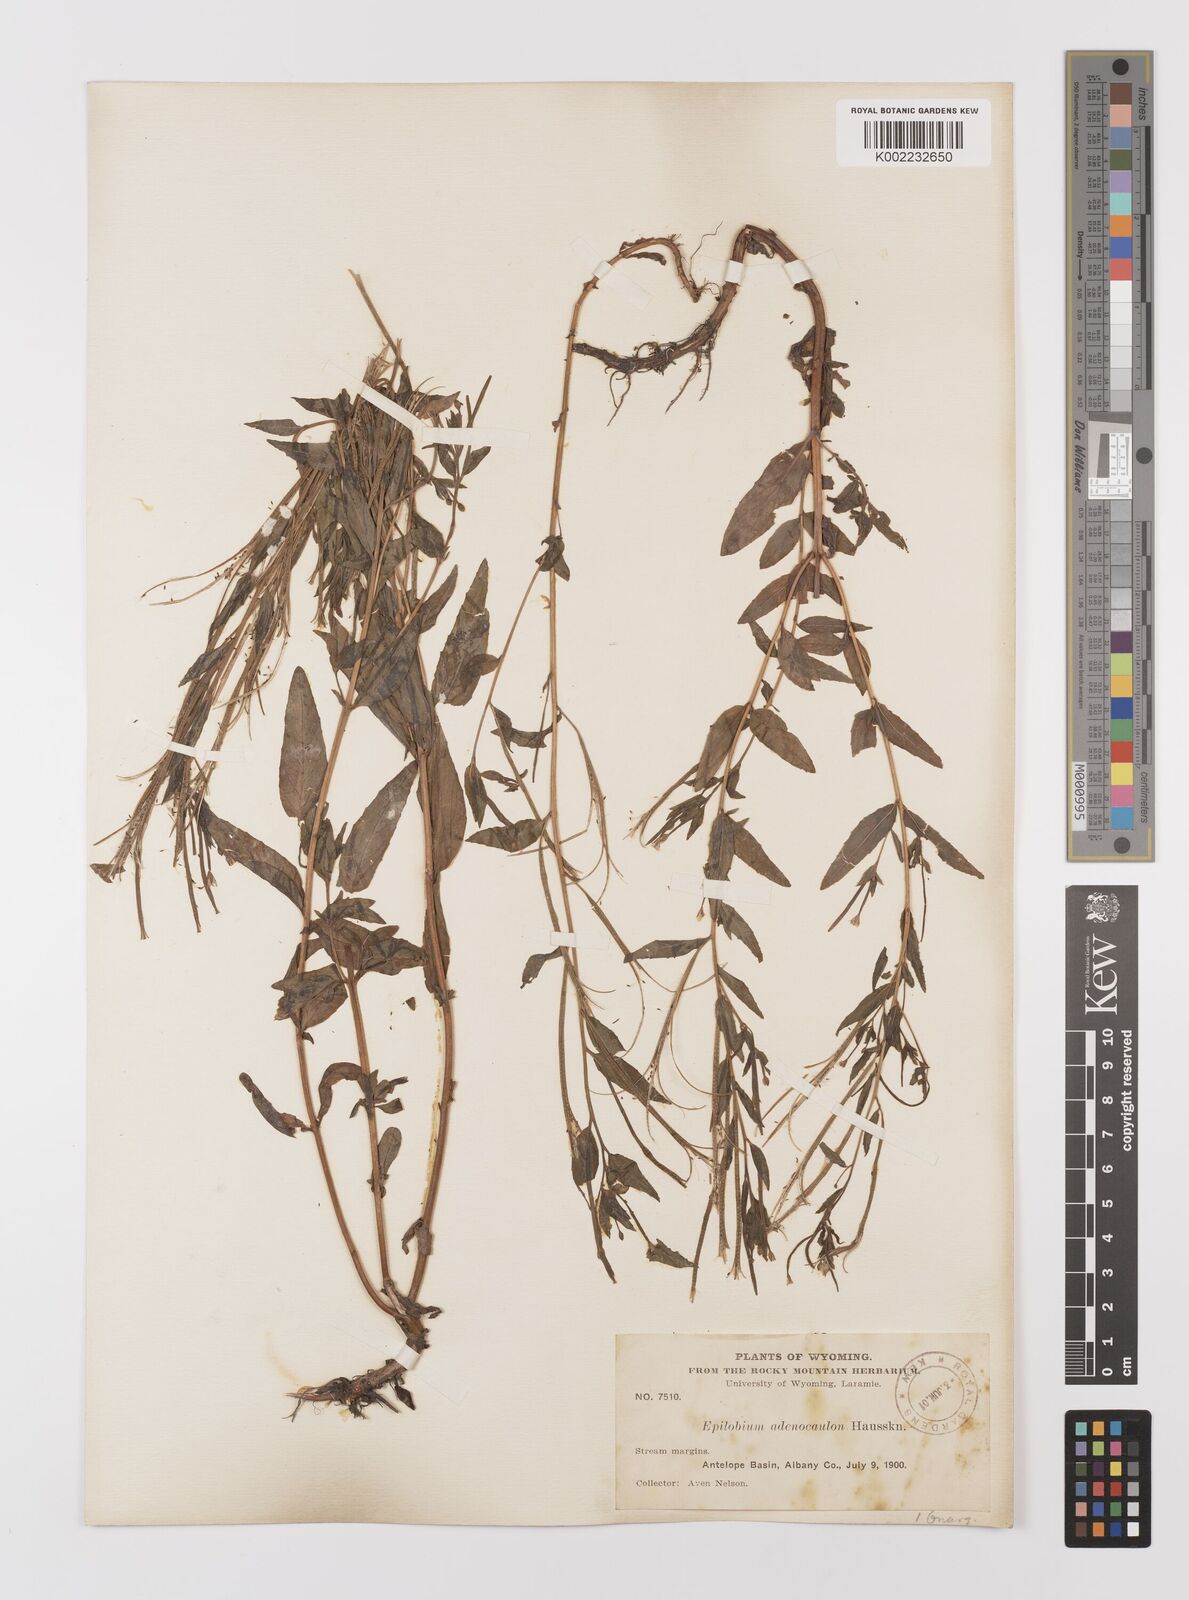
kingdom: Plantae
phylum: Tracheophyta
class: Magnoliopsida
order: Myrtales
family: Onagraceae
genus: Epilobium
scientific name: Epilobium ciliatum
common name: American willowherb
